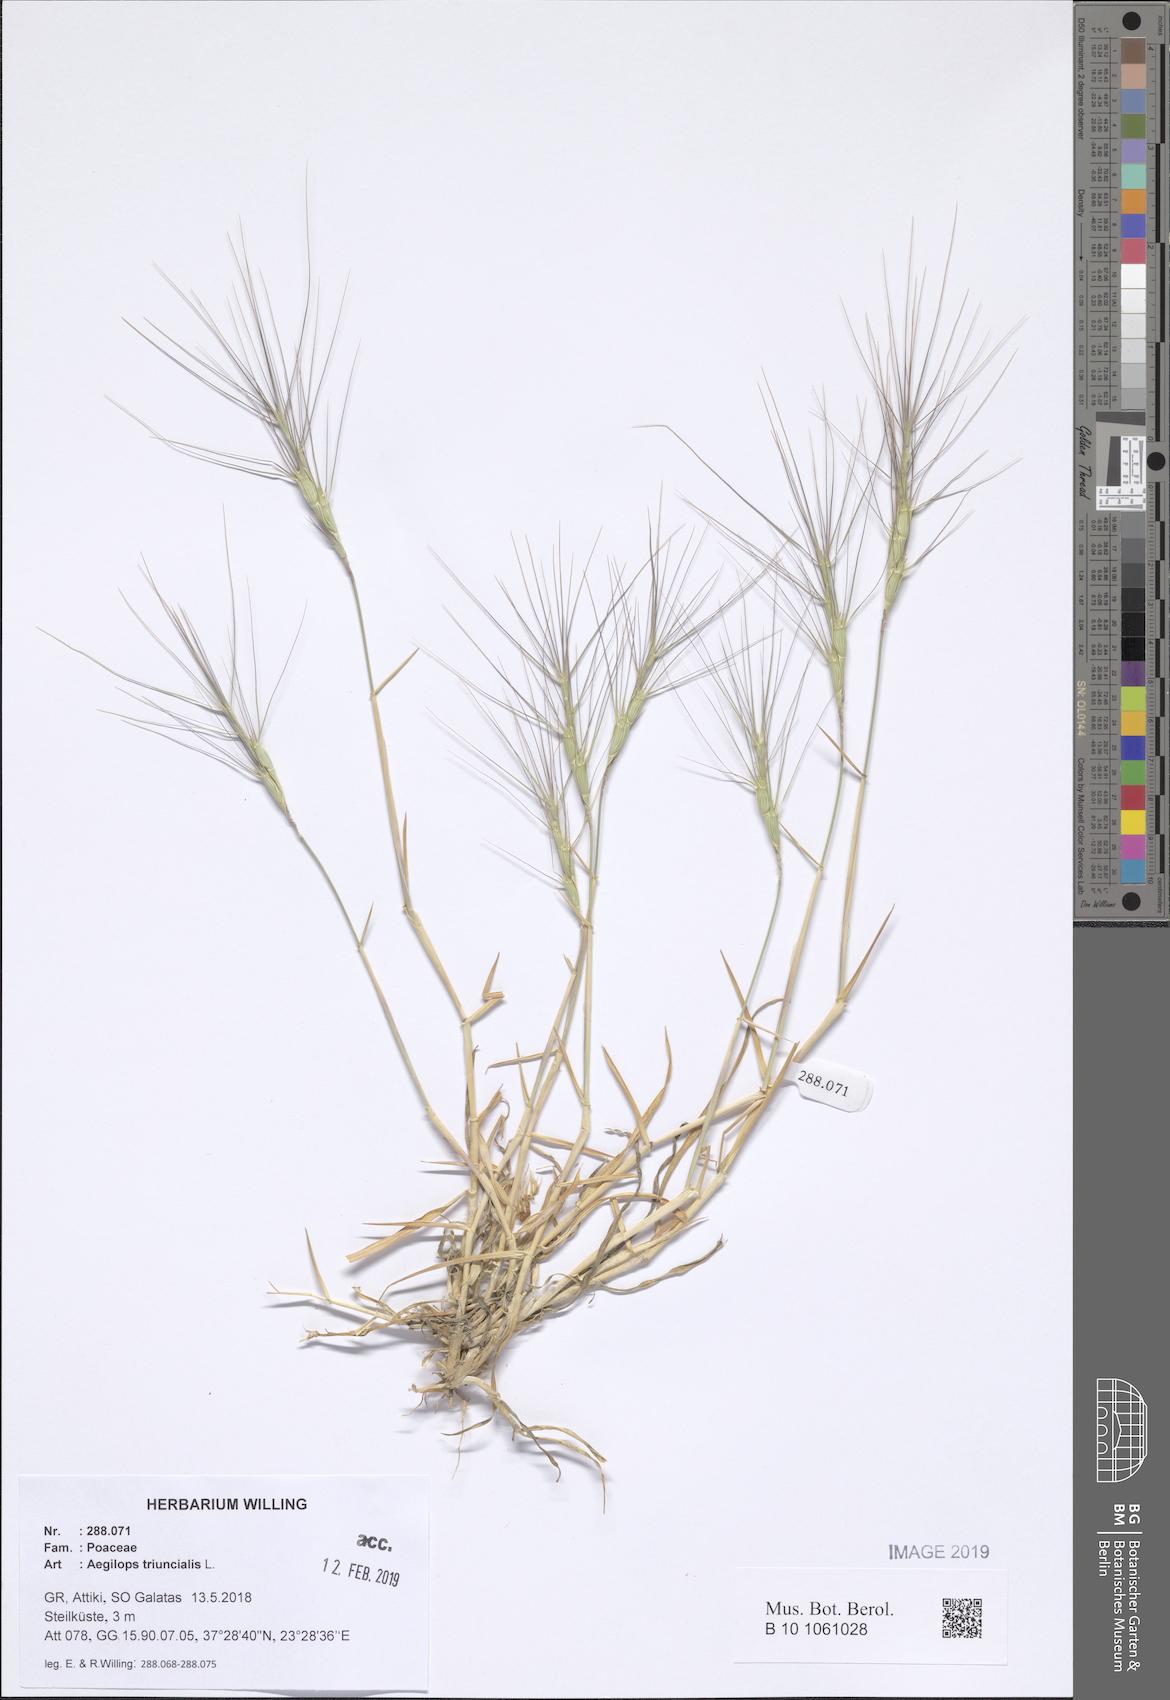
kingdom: Plantae
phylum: Tracheophyta
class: Liliopsida
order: Poales
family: Poaceae
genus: Aegilops
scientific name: Aegilops triuncialis
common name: Barb goat grass
